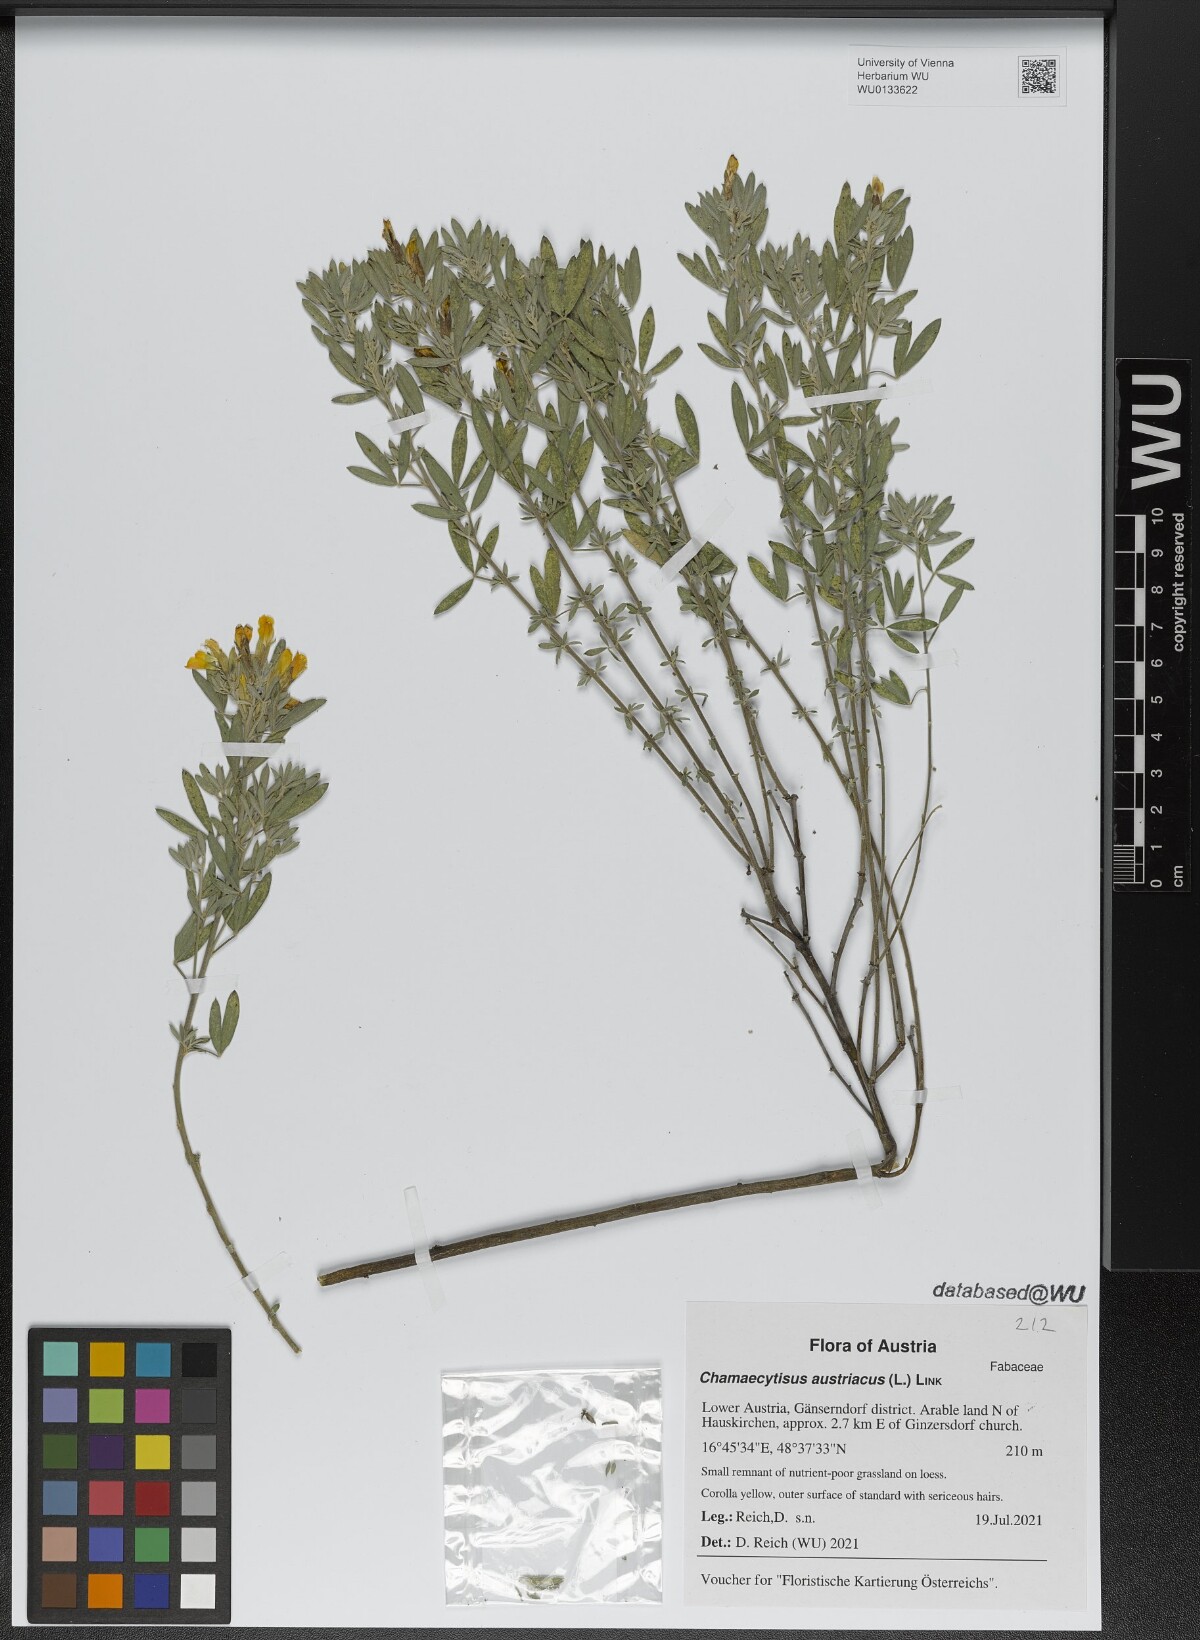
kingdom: Plantae
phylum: Tracheophyta
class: Magnoliopsida
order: Fabales
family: Fabaceae
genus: Chamaecytisus
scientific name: Chamaecytisus austriacus
